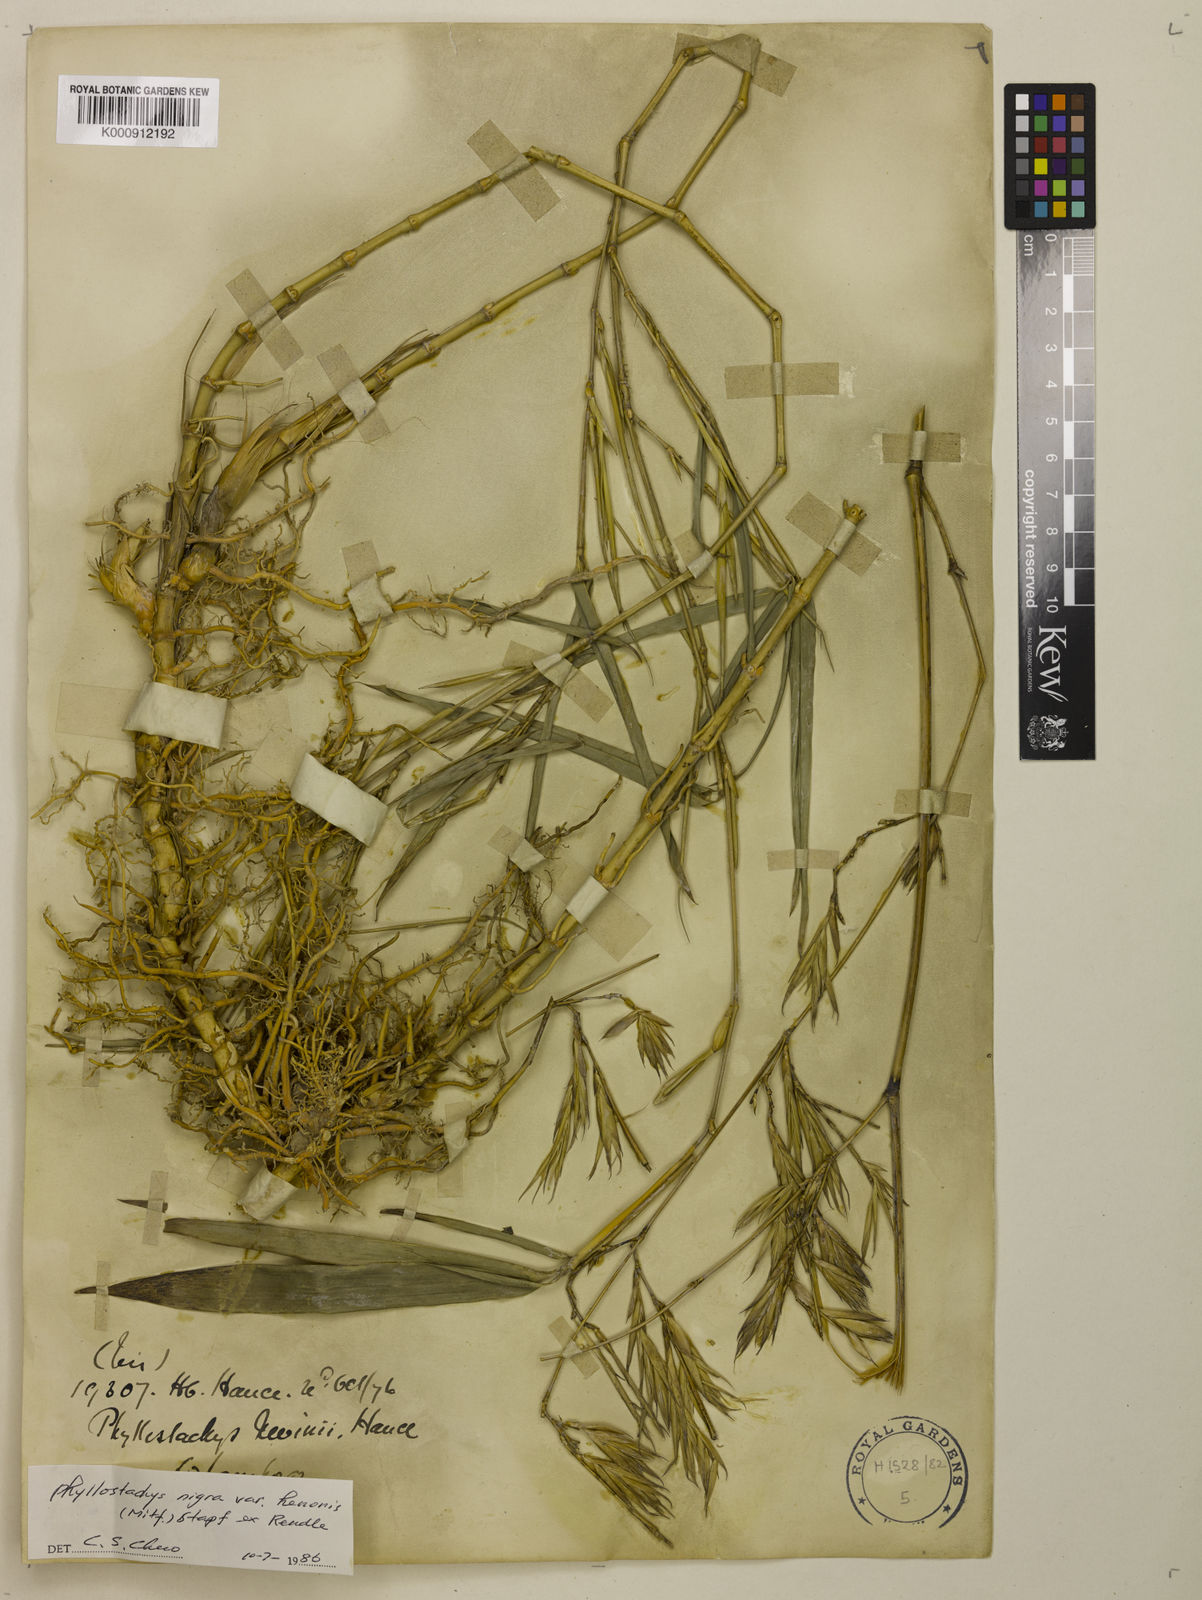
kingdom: Plantae
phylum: Tracheophyta
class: Liliopsida
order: Poales
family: Poaceae
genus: Phyllostachys
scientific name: Phyllostachys nigra
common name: Black bamboo
